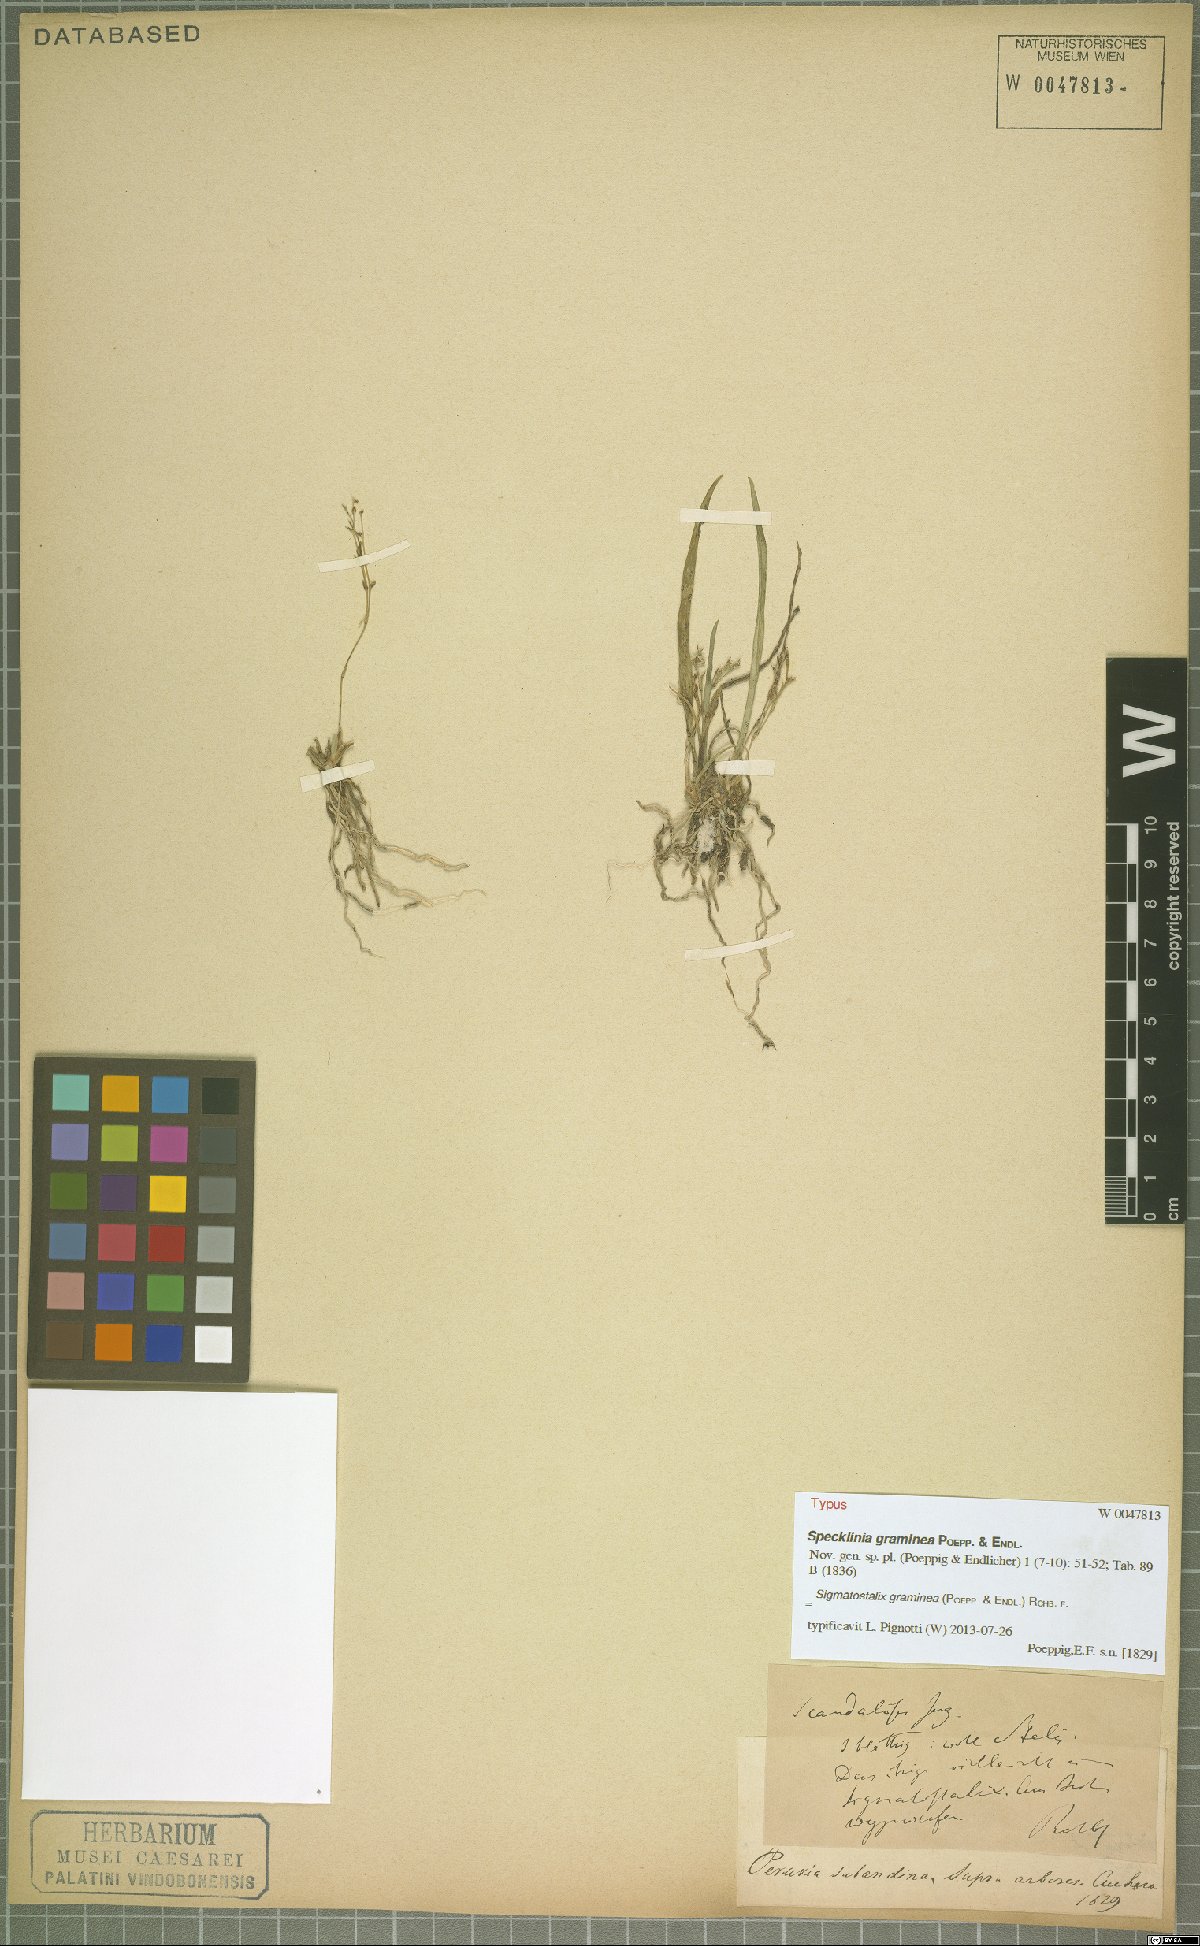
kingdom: Plantae
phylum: Tracheophyta
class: Liliopsida
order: Asparagales
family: Orchidaceae
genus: Oncidium
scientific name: Oncidium gramineum
